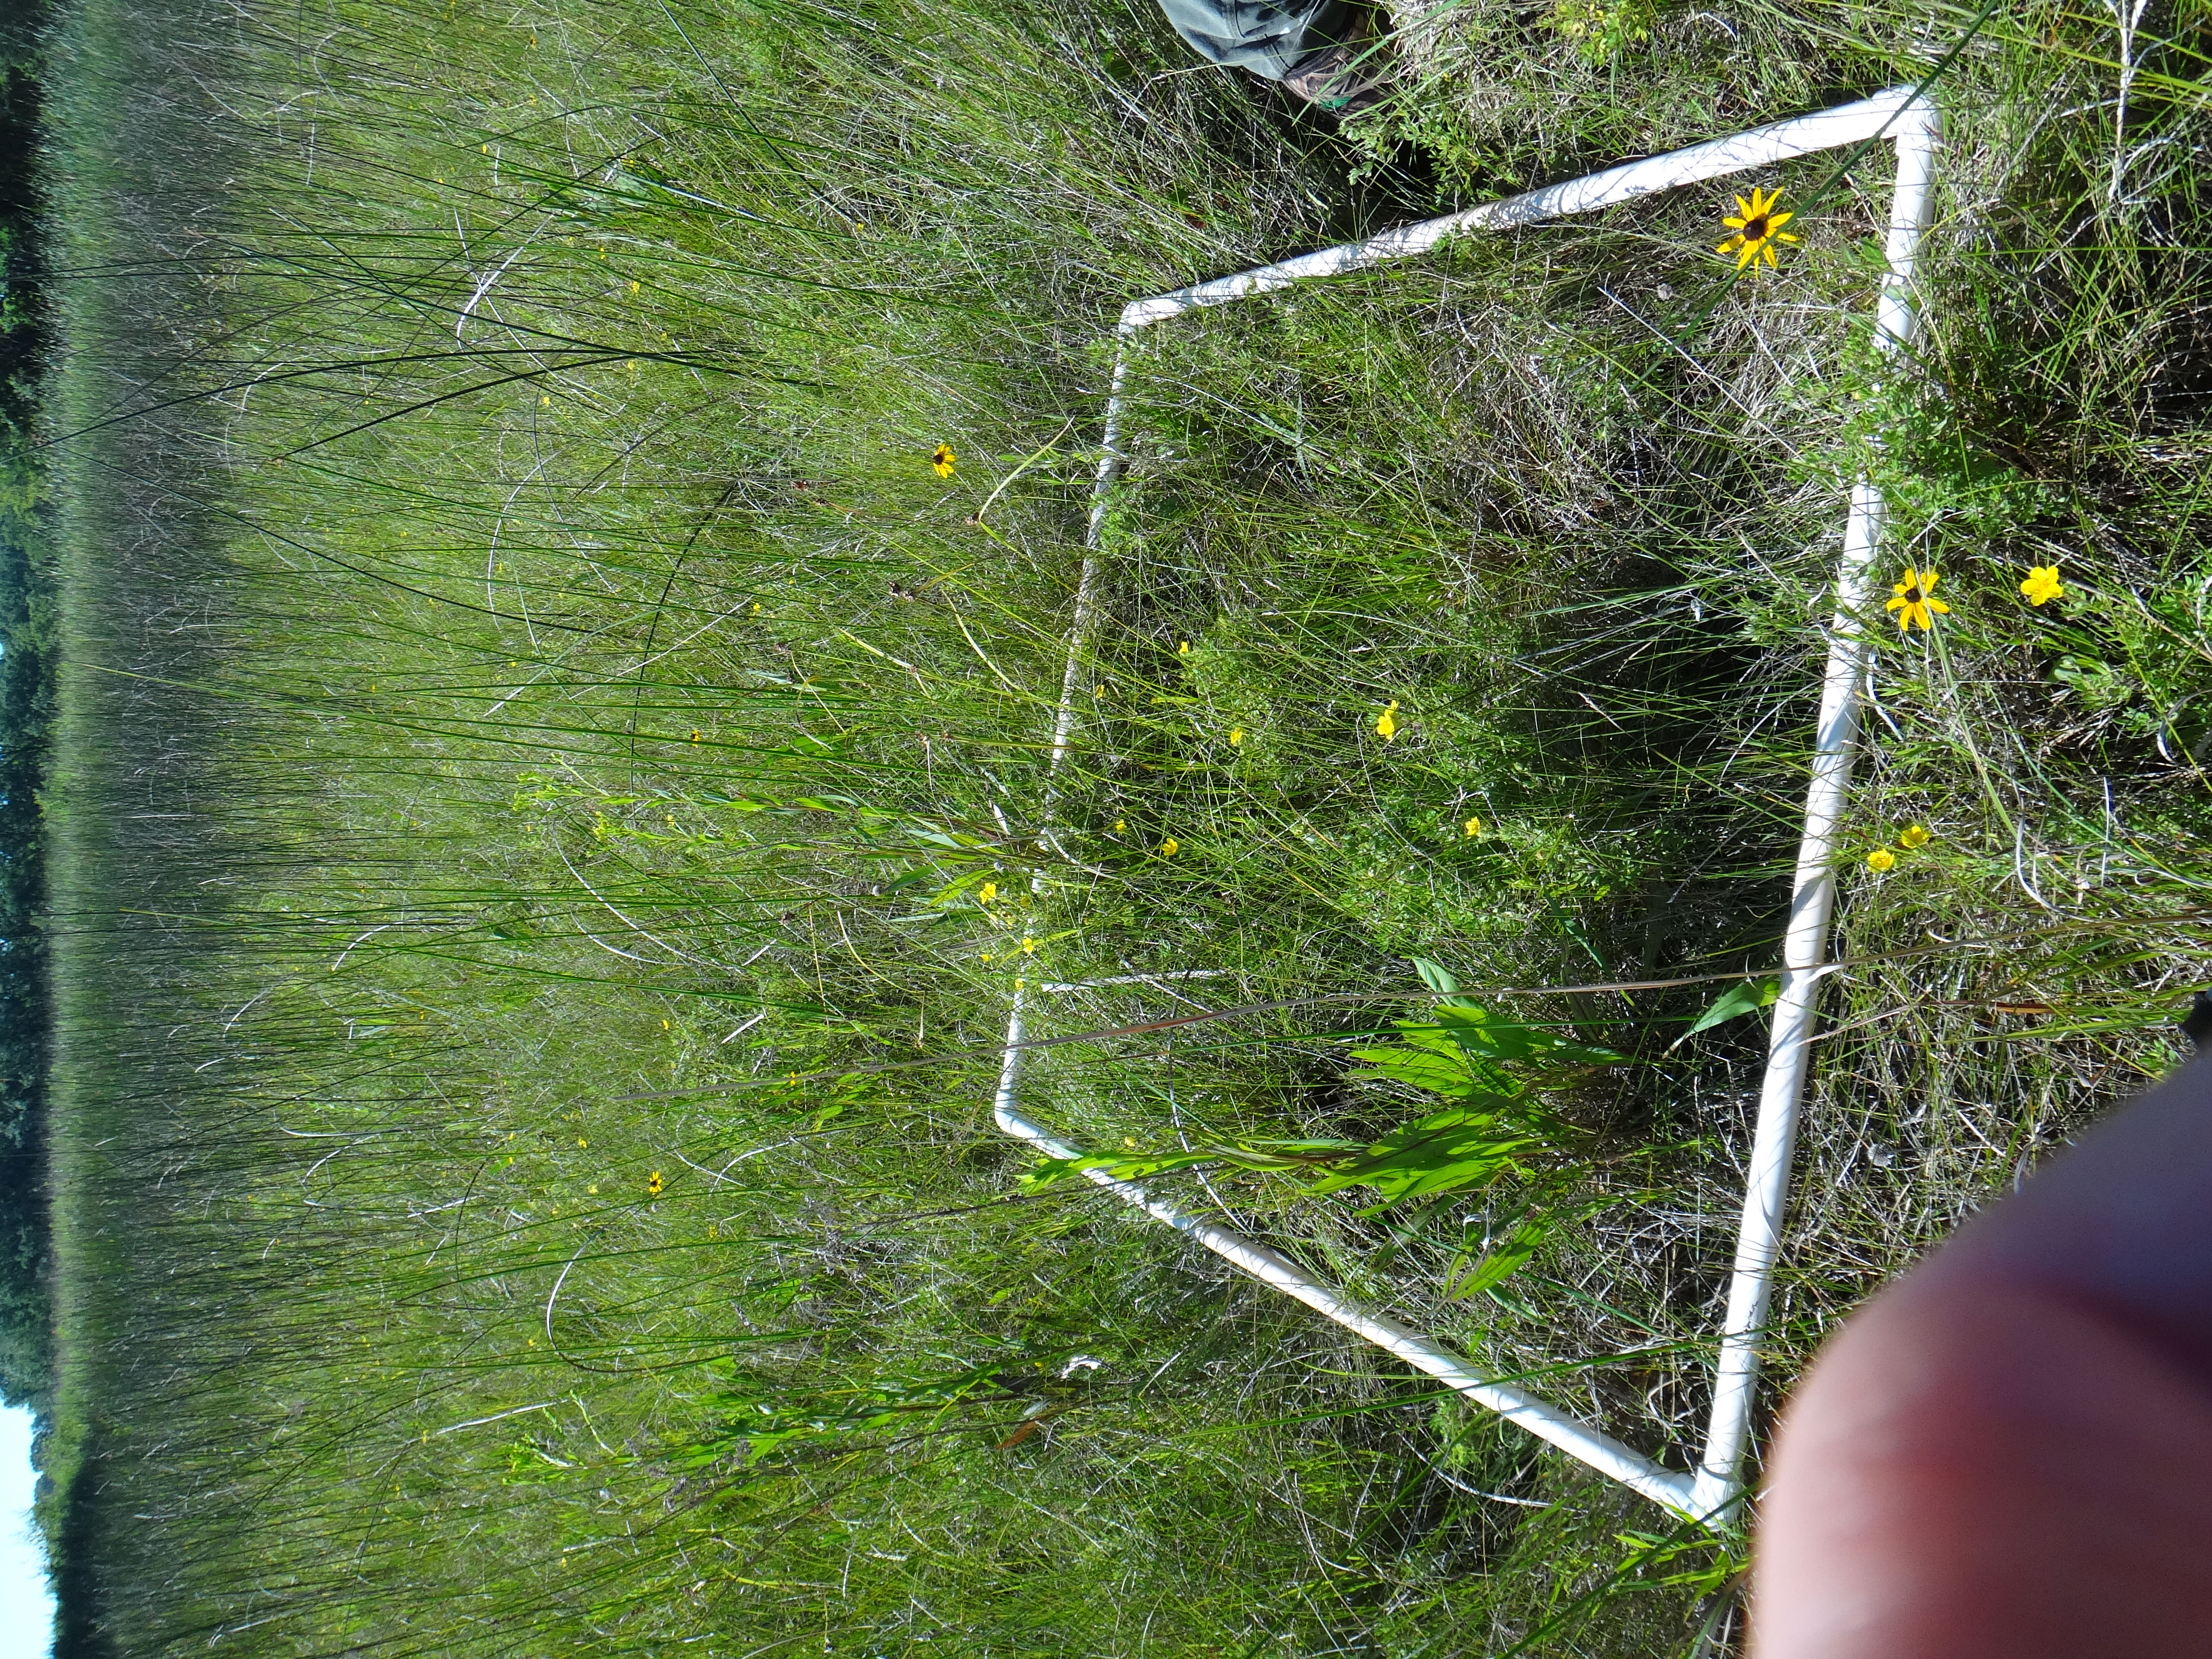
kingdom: Plantae
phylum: Tracheophyta
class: Magnoliopsida
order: Asterales
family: Asteraceae
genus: Solidago
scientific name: Solidago uliginosa
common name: Bog goldenrod
